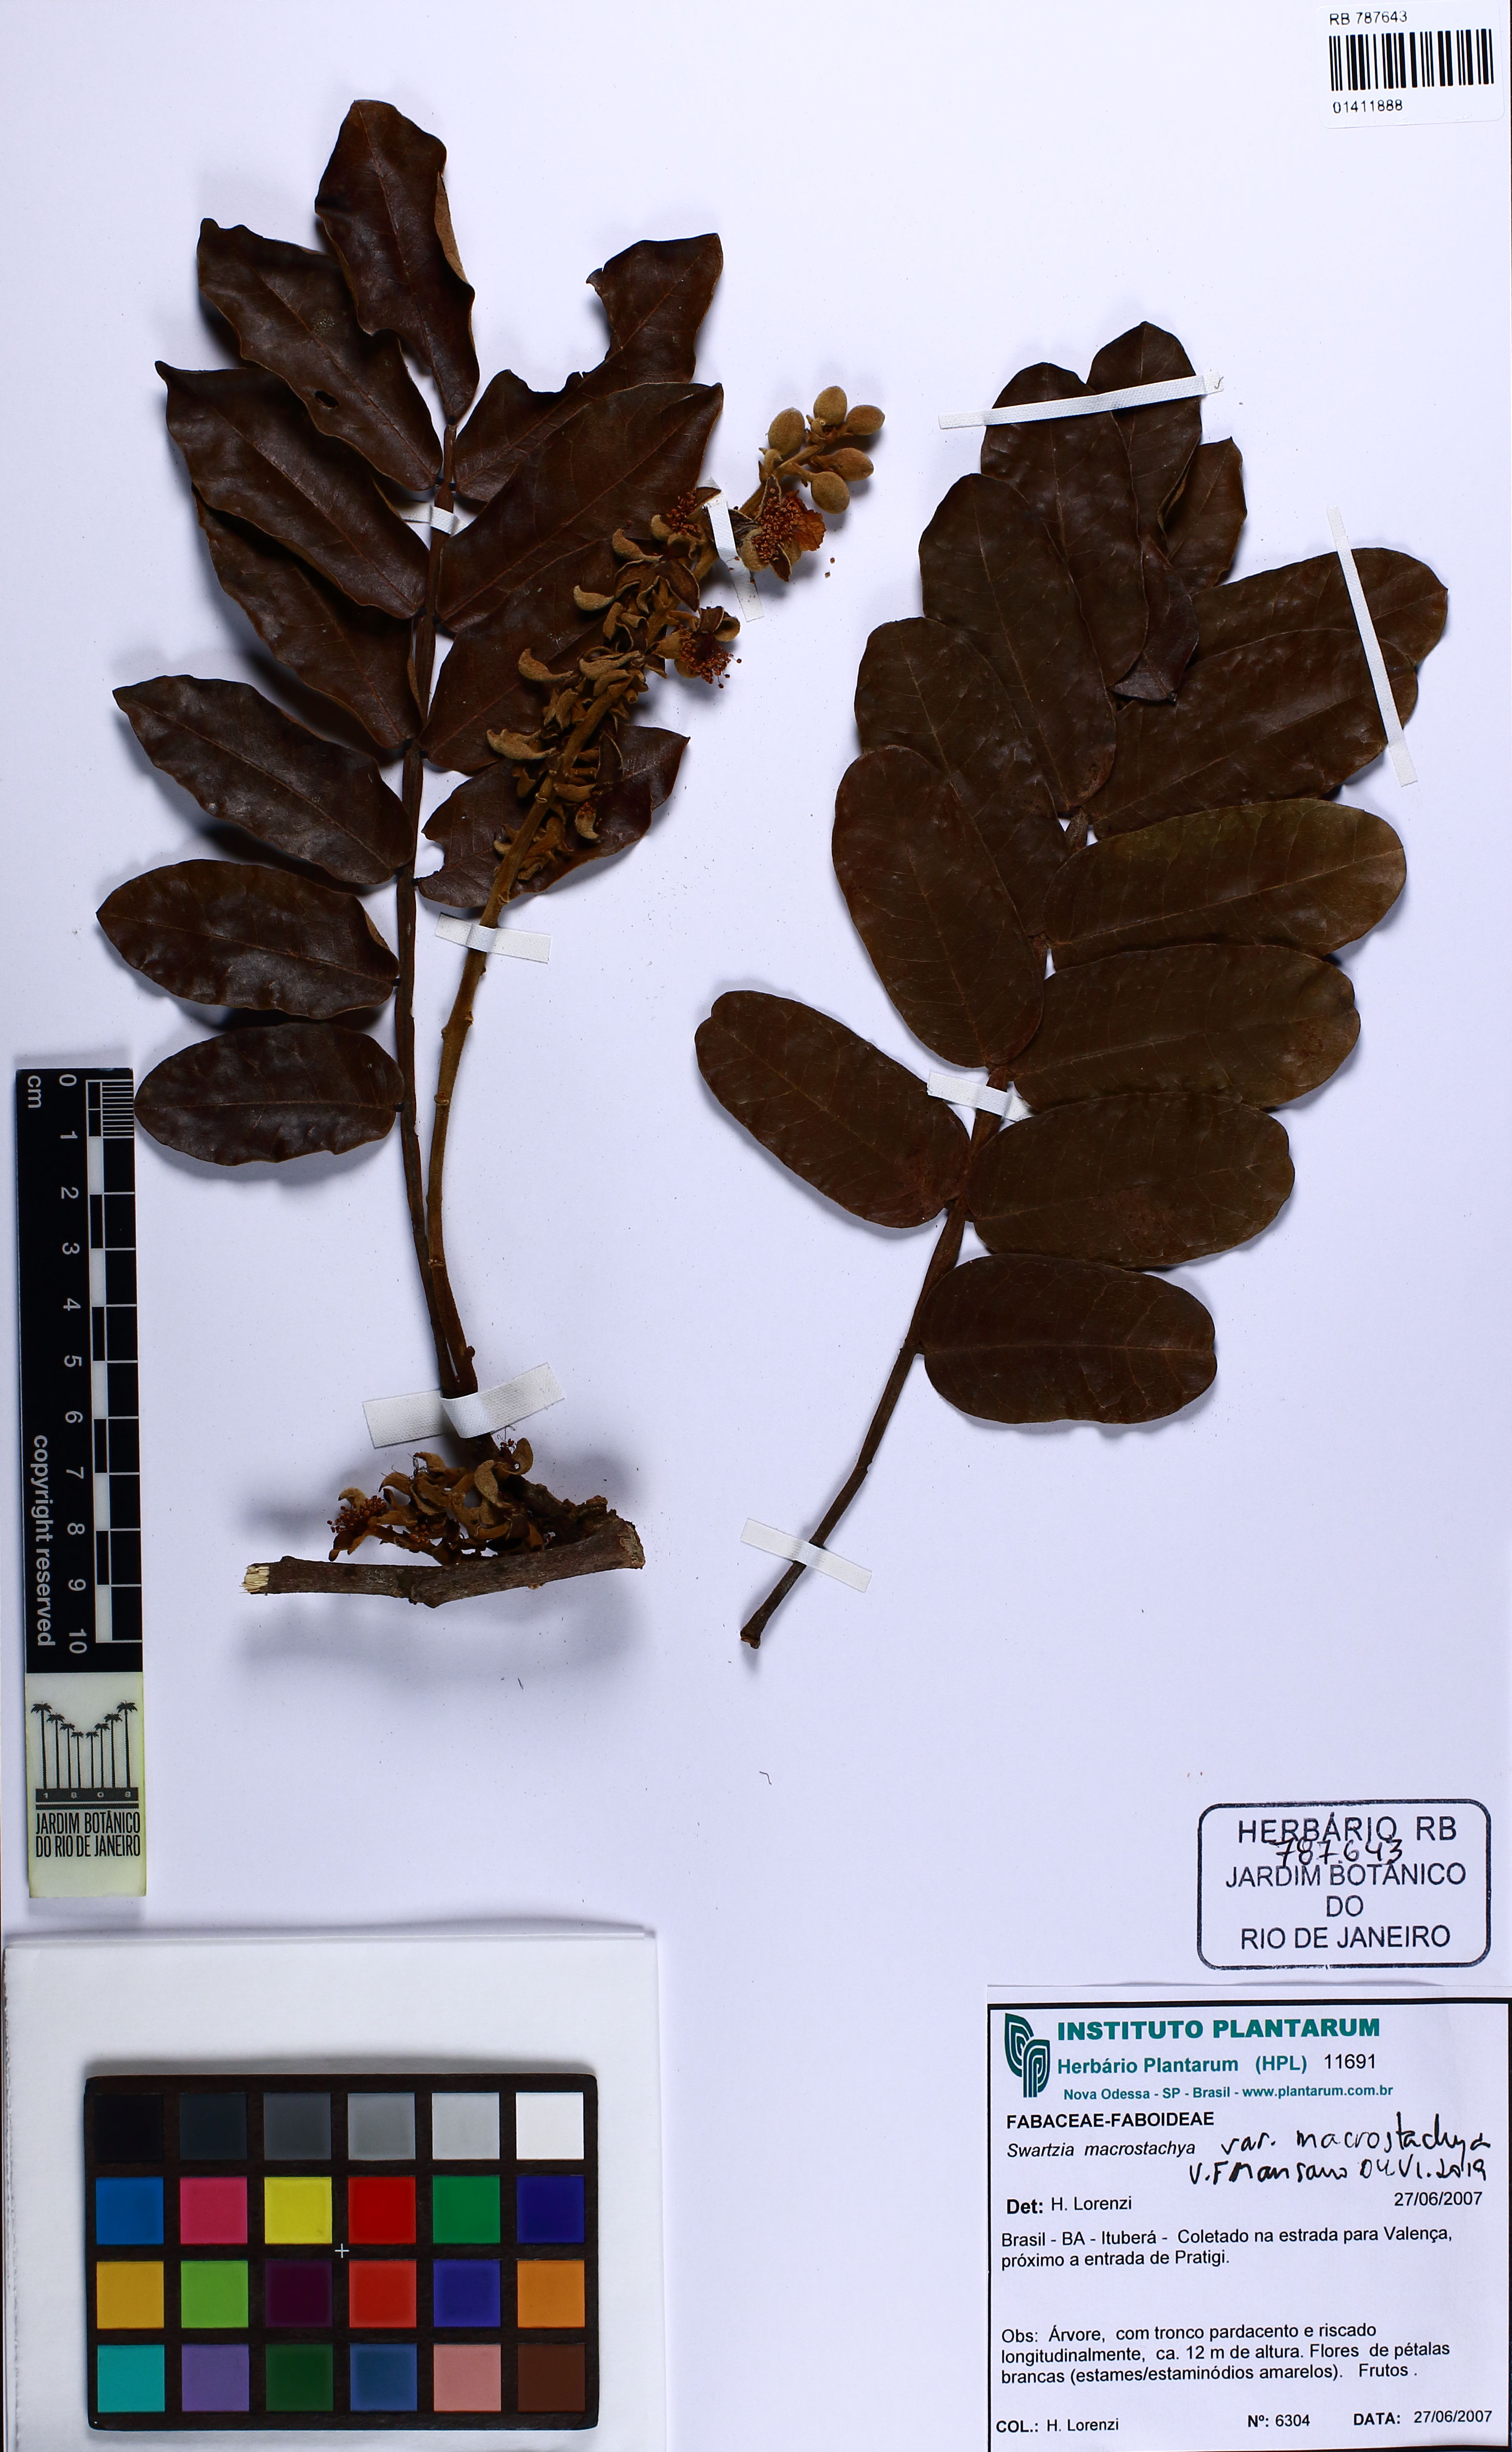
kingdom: Plantae
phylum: Tracheophyta
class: Magnoliopsida
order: Fabales
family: Fabaceae
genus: Swartzia
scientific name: Swartzia macrostachya
